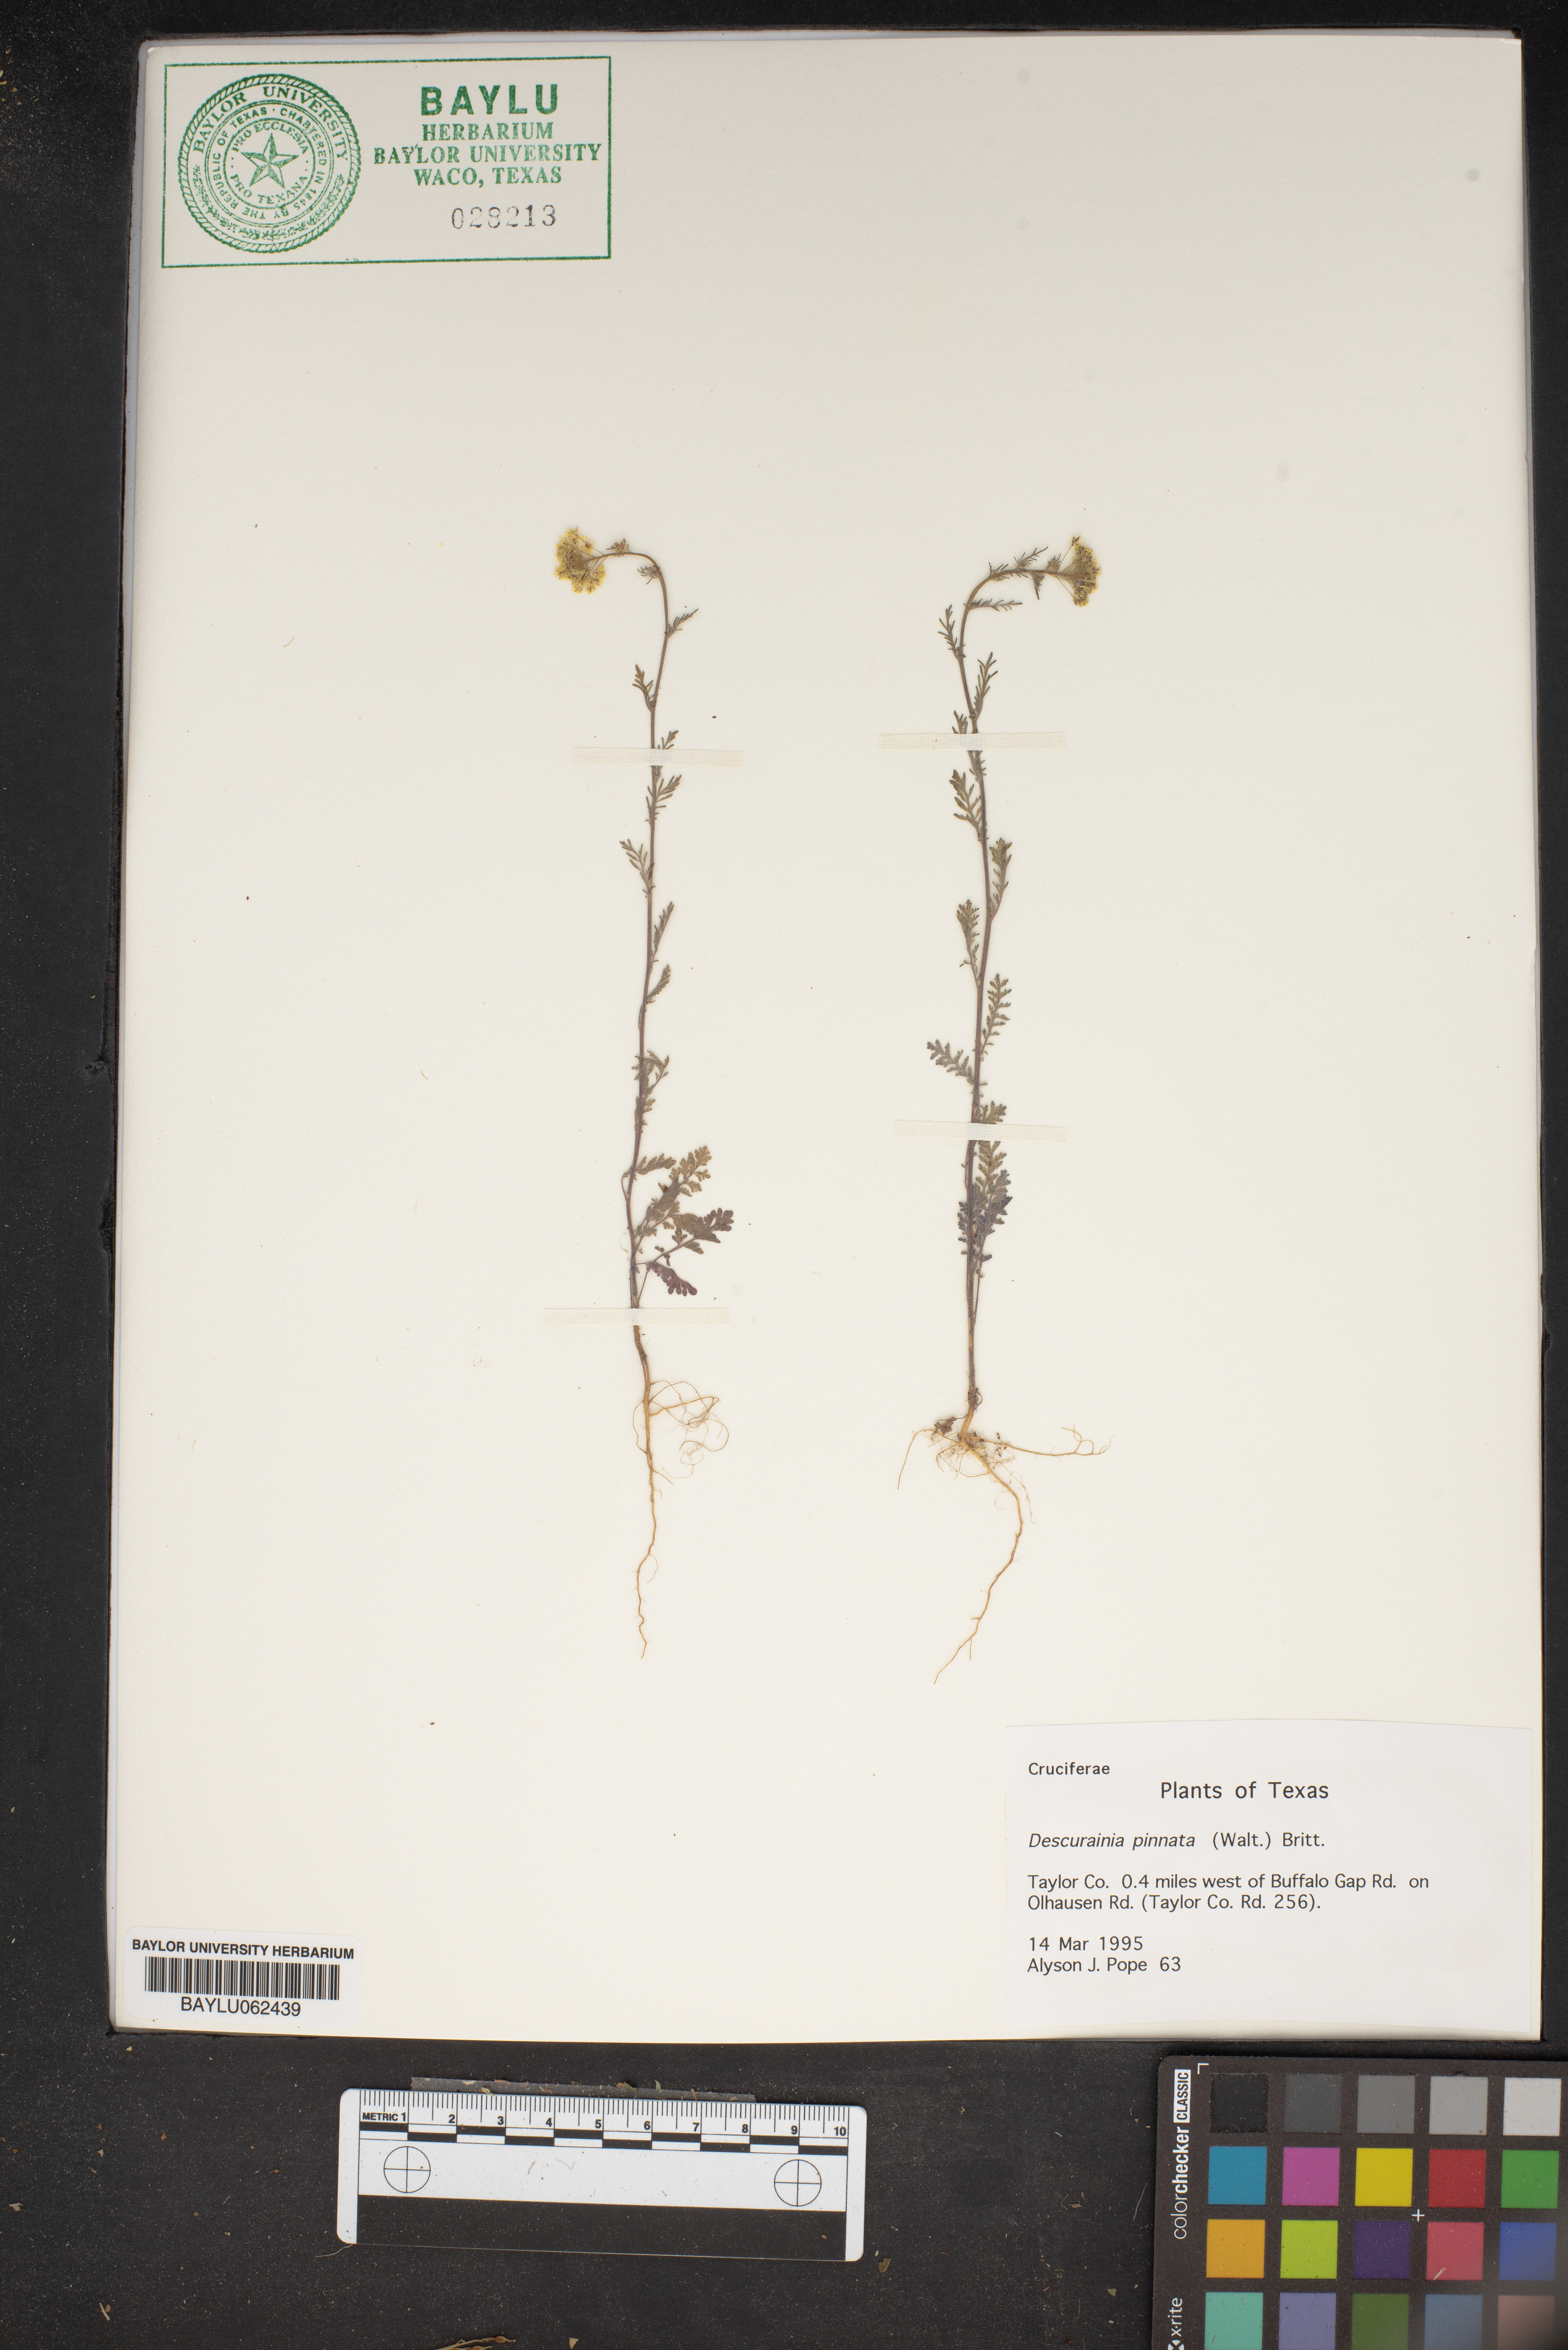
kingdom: Plantae
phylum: Tracheophyta
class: Magnoliopsida
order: Brassicales
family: Brassicaceae
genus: Descurainia
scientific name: Descurainia pinnata
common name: Western tansy mustard
